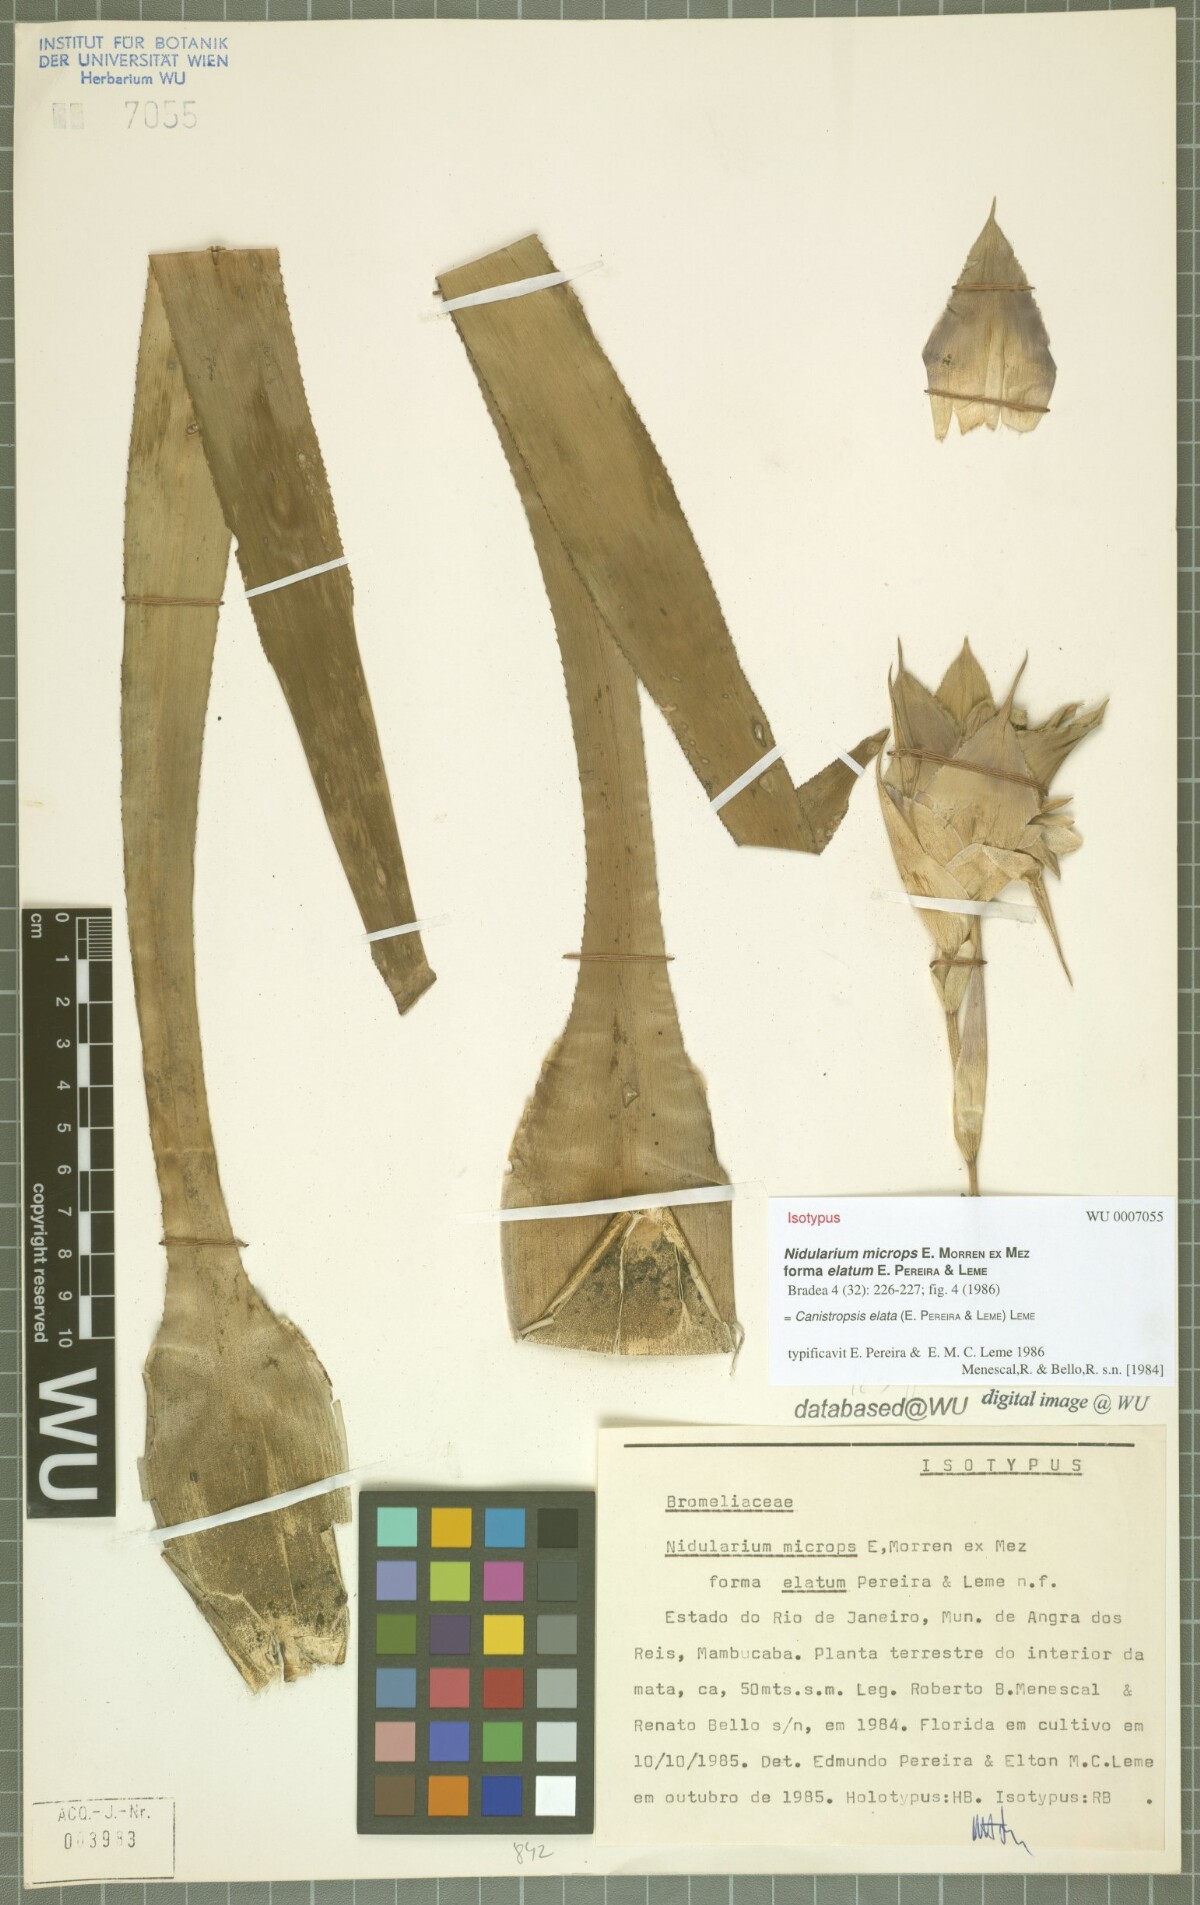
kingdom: Plantae
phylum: Tracheophyta
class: Liliopsida
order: Poales
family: Bromeliaceae
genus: Canistropsis
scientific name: Canistropsis elata
